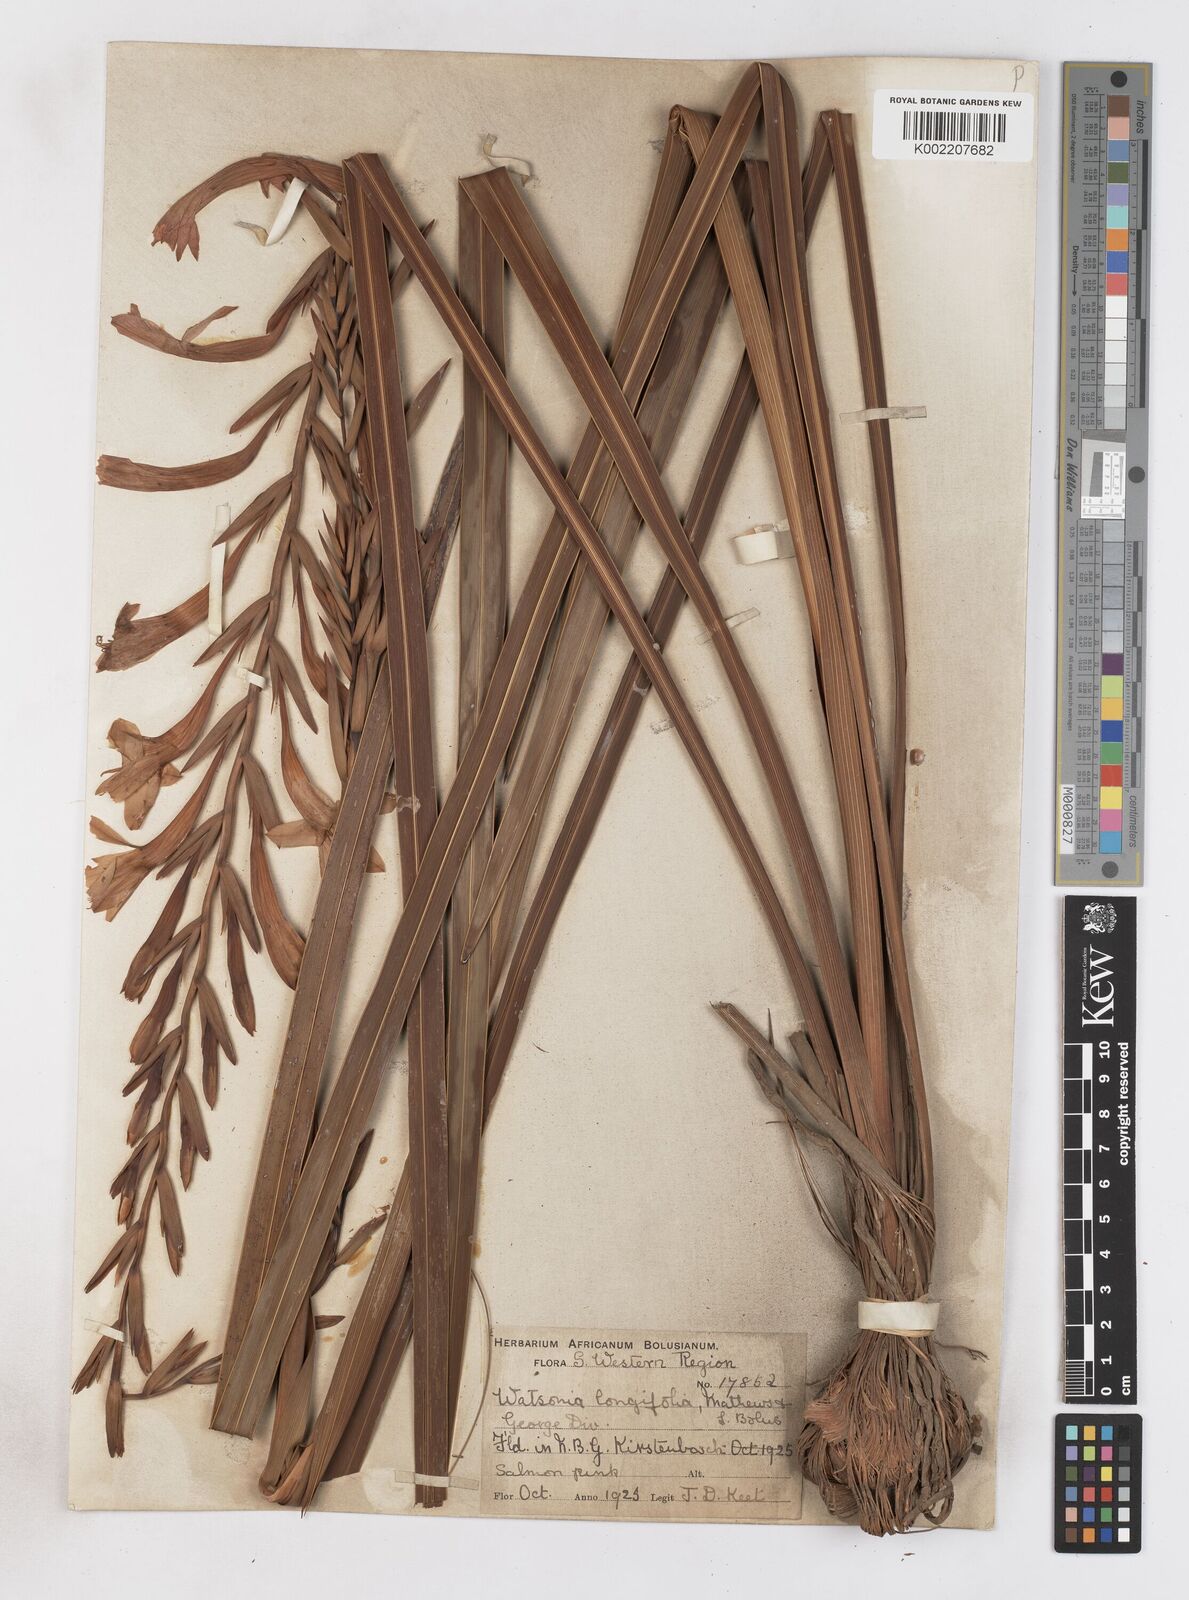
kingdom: Plantae
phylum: Tracheophyta
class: Liliopsida
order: Asparagales
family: Iridaceae
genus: Watsonia
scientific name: Watsonia longifolia
